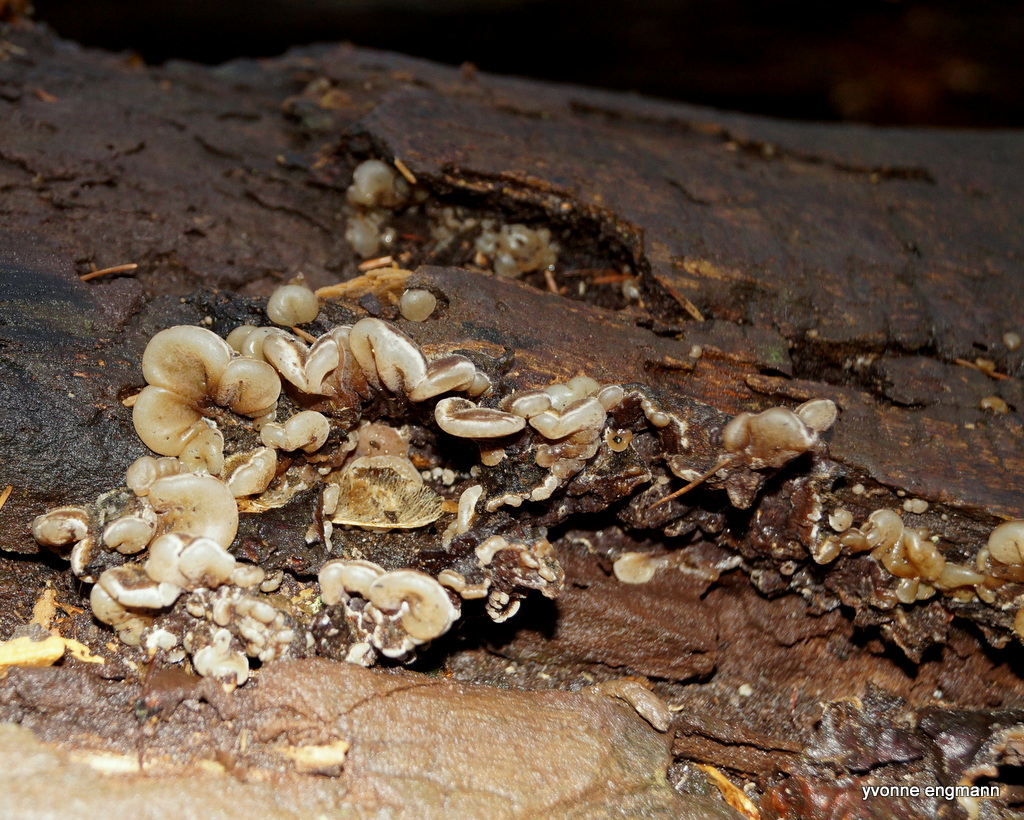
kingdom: Fungi
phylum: Basidiomycota
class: Agaricomycetes
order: Auriculariales
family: Auriculariaceae
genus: Auricularia
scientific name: Auricularia mesenterica
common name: håret judasøre
